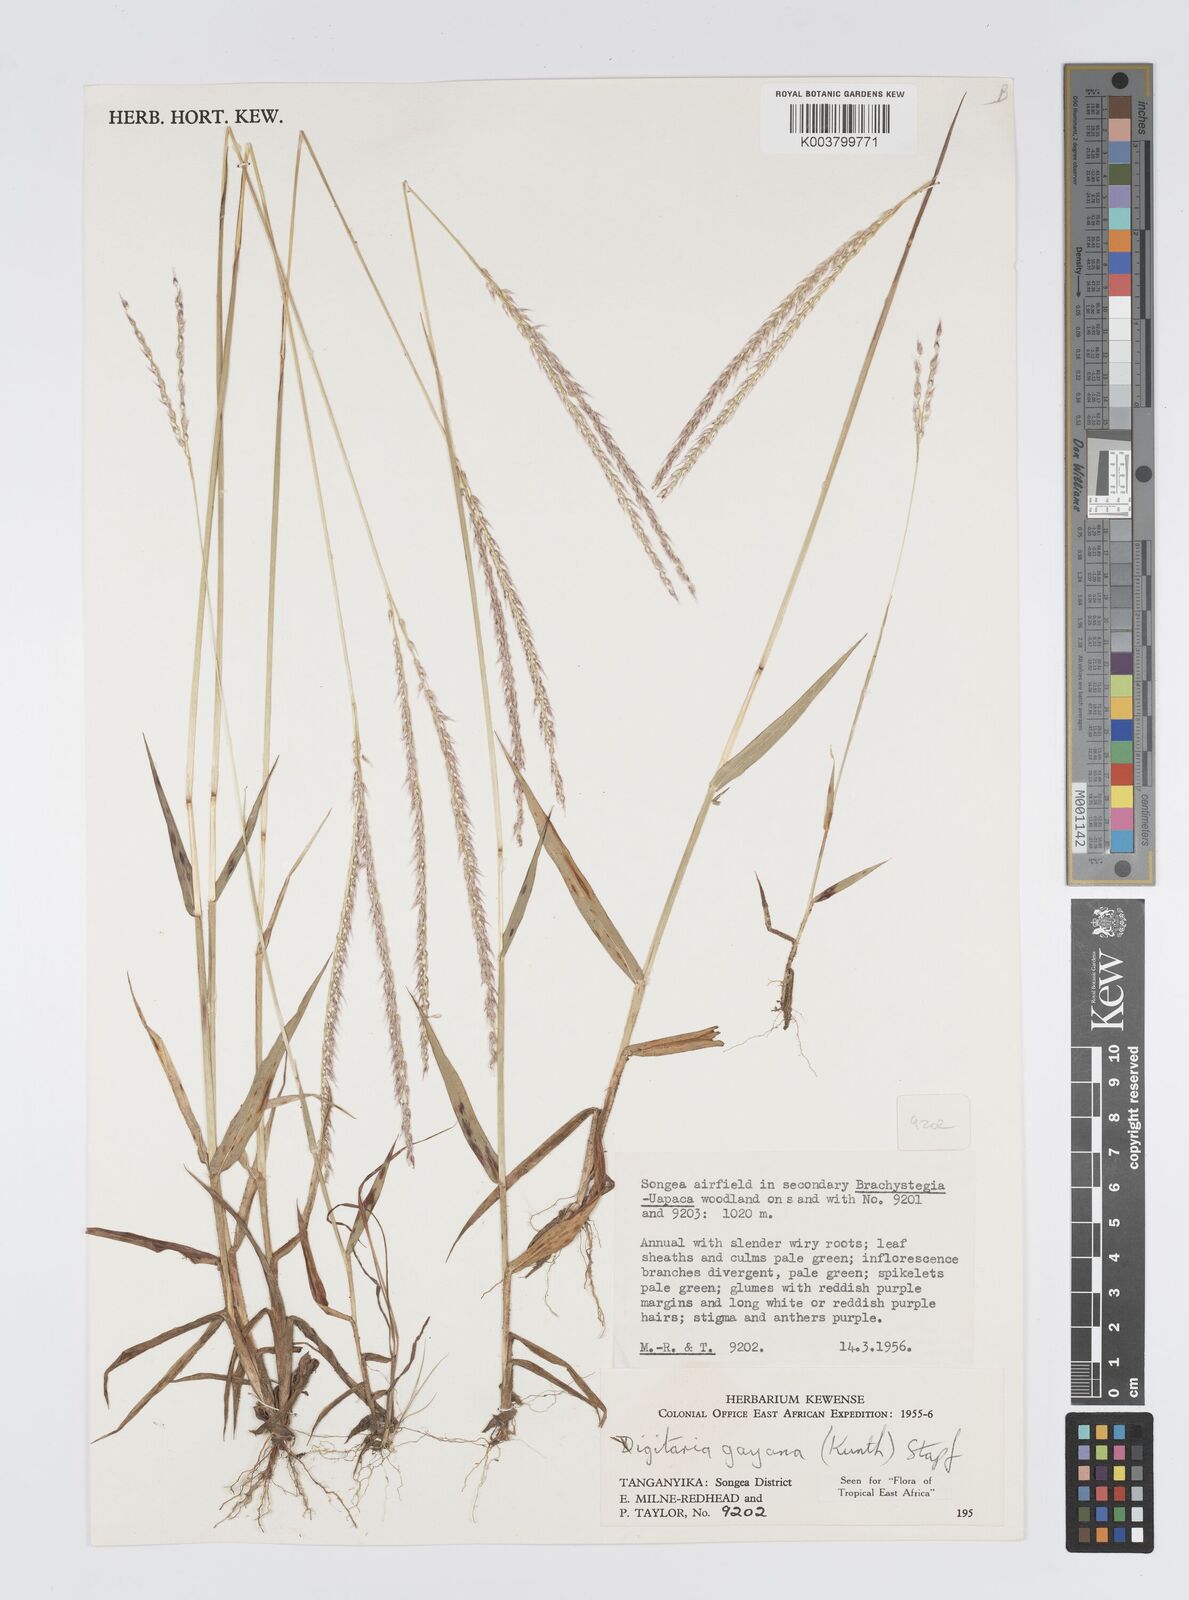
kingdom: Plantae
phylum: Tracheophyta
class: Liliopsida
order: Poales
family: Poaceae
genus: Digitaria
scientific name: Digitaria gayana
